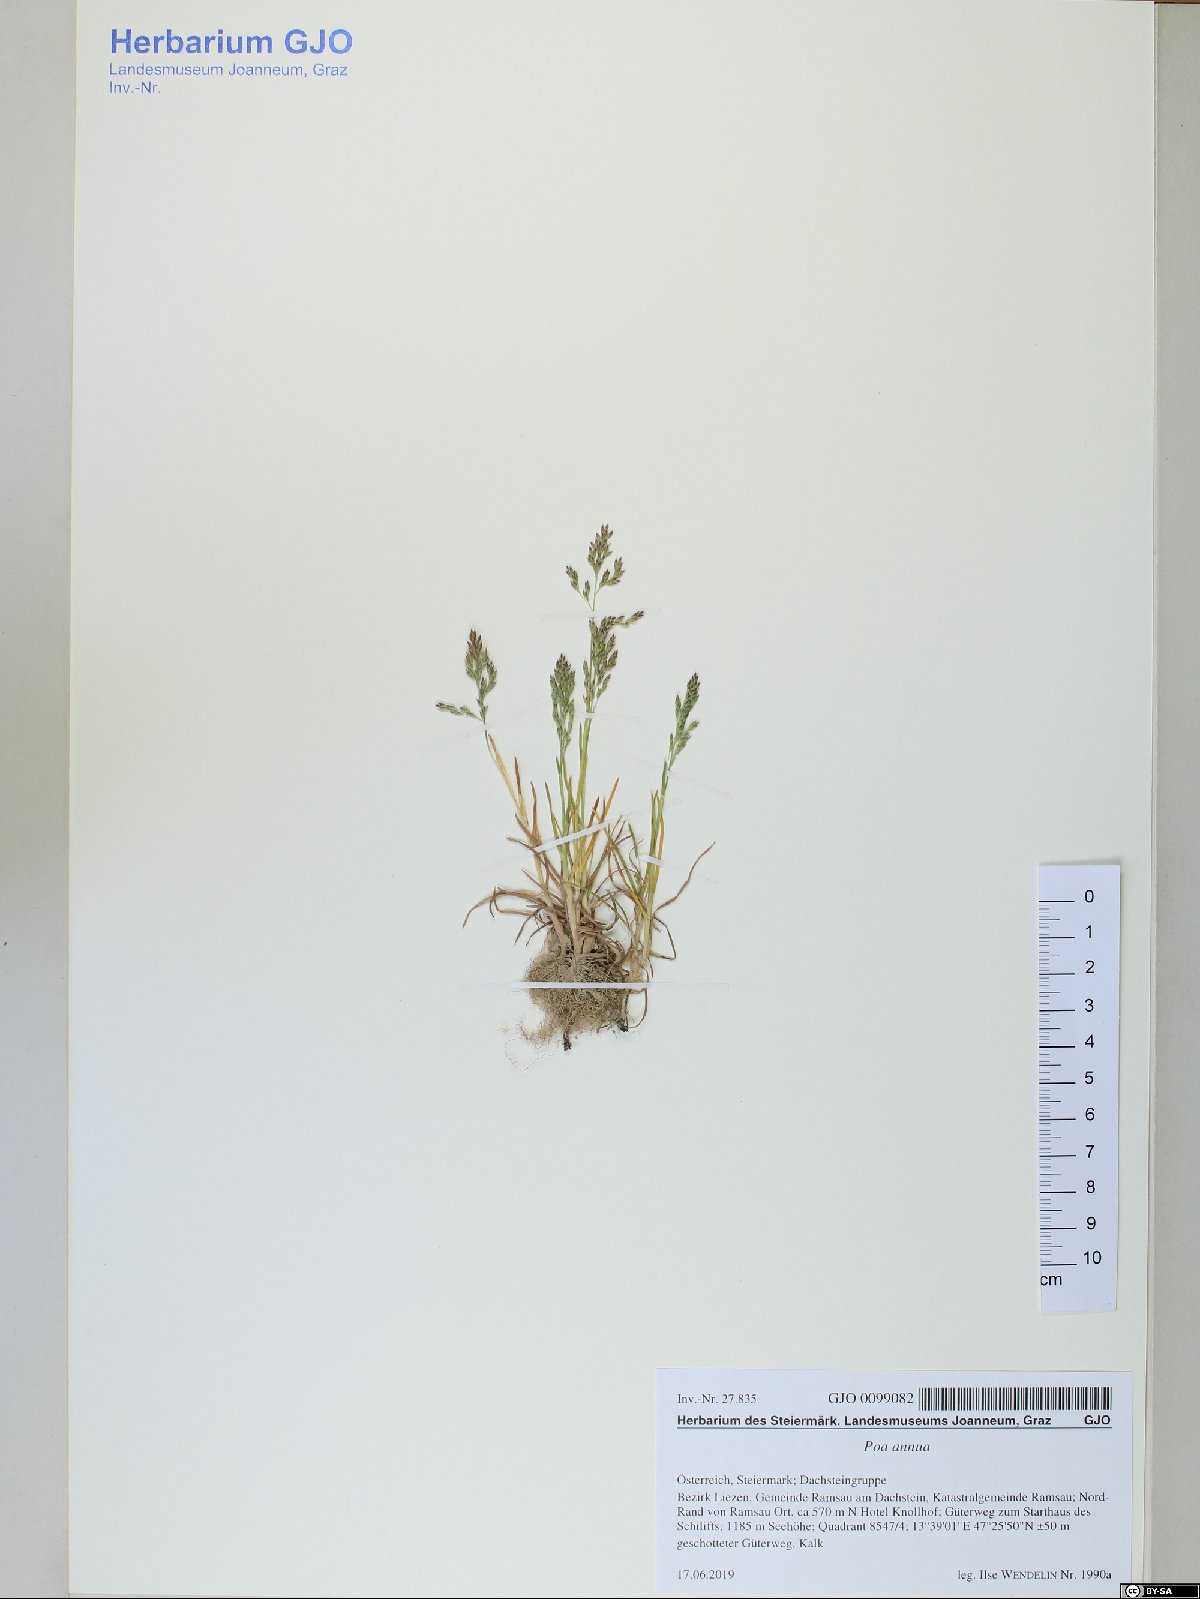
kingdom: Plantae
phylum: Tracheophyta
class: Liliopsida
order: Poales
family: Poaceae
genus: Poa
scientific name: Poa annua
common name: Annual bluegrass
